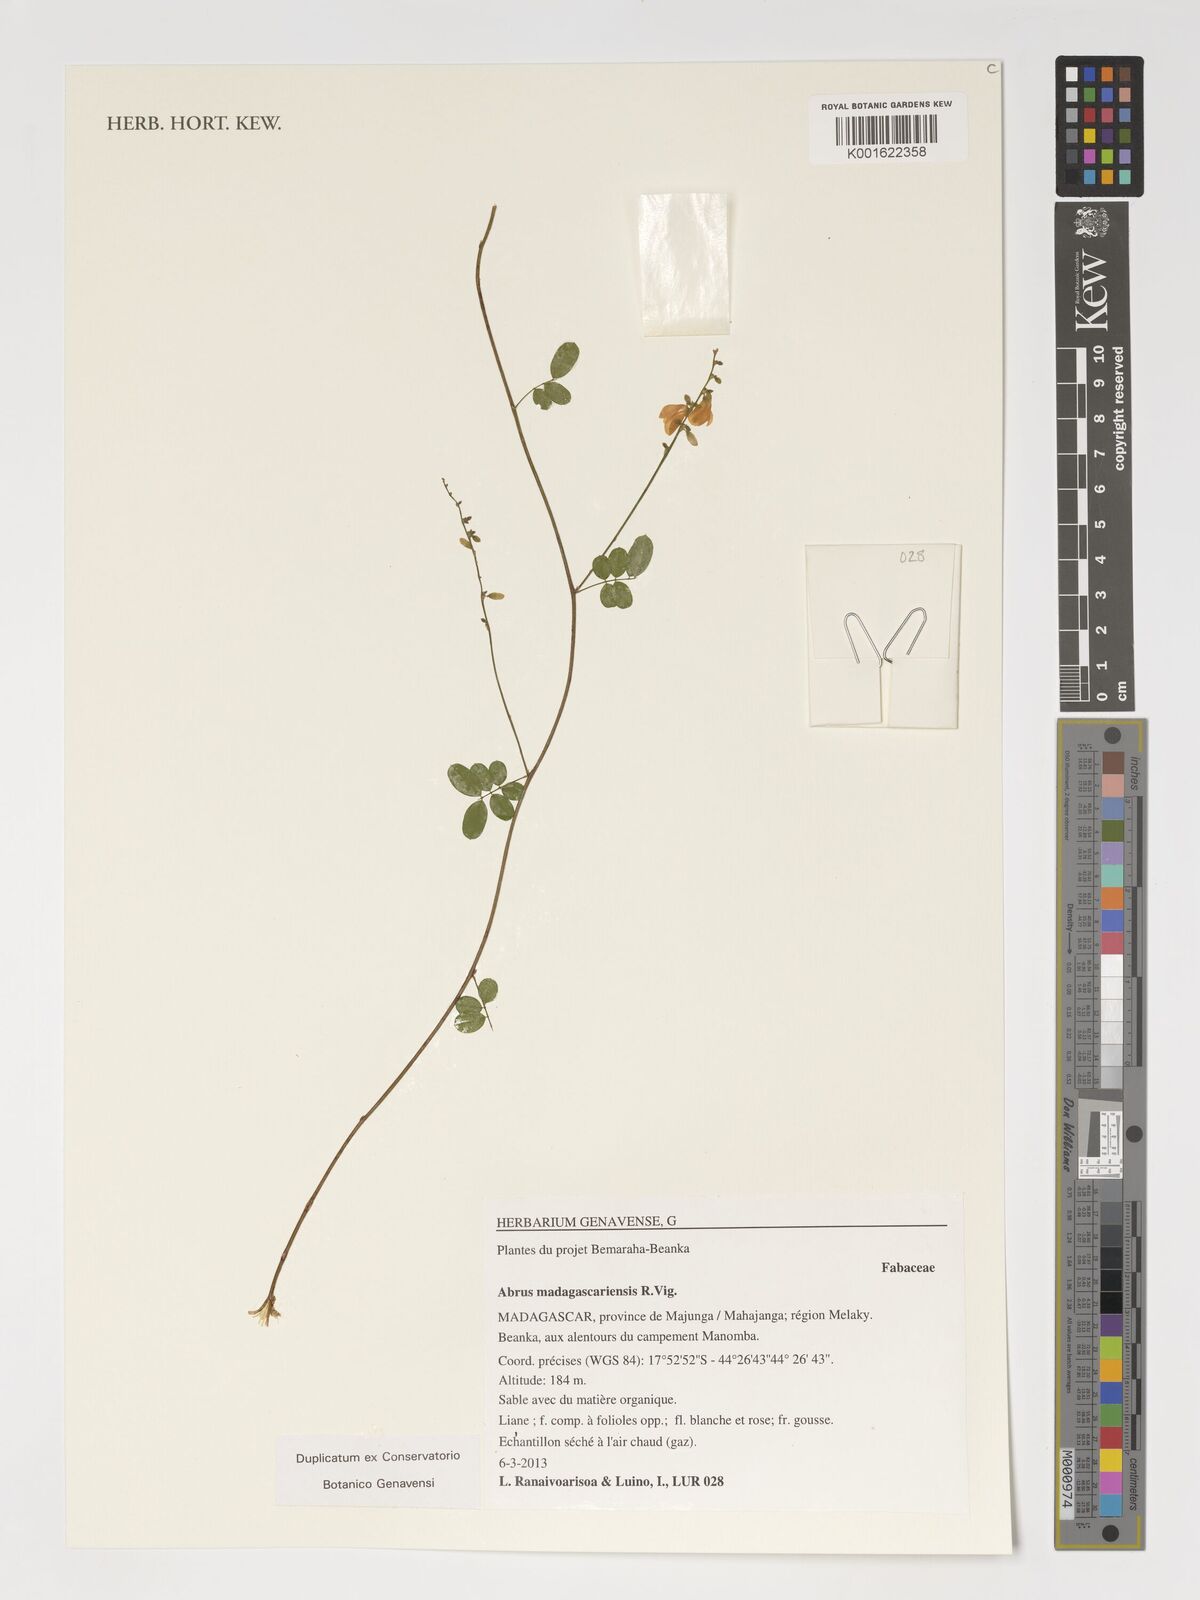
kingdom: Plantae
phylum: Tracheophyta
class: Magnoliopsida
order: Fabales
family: Fabaceae
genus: Abrus
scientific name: Abrus madagascariensis
